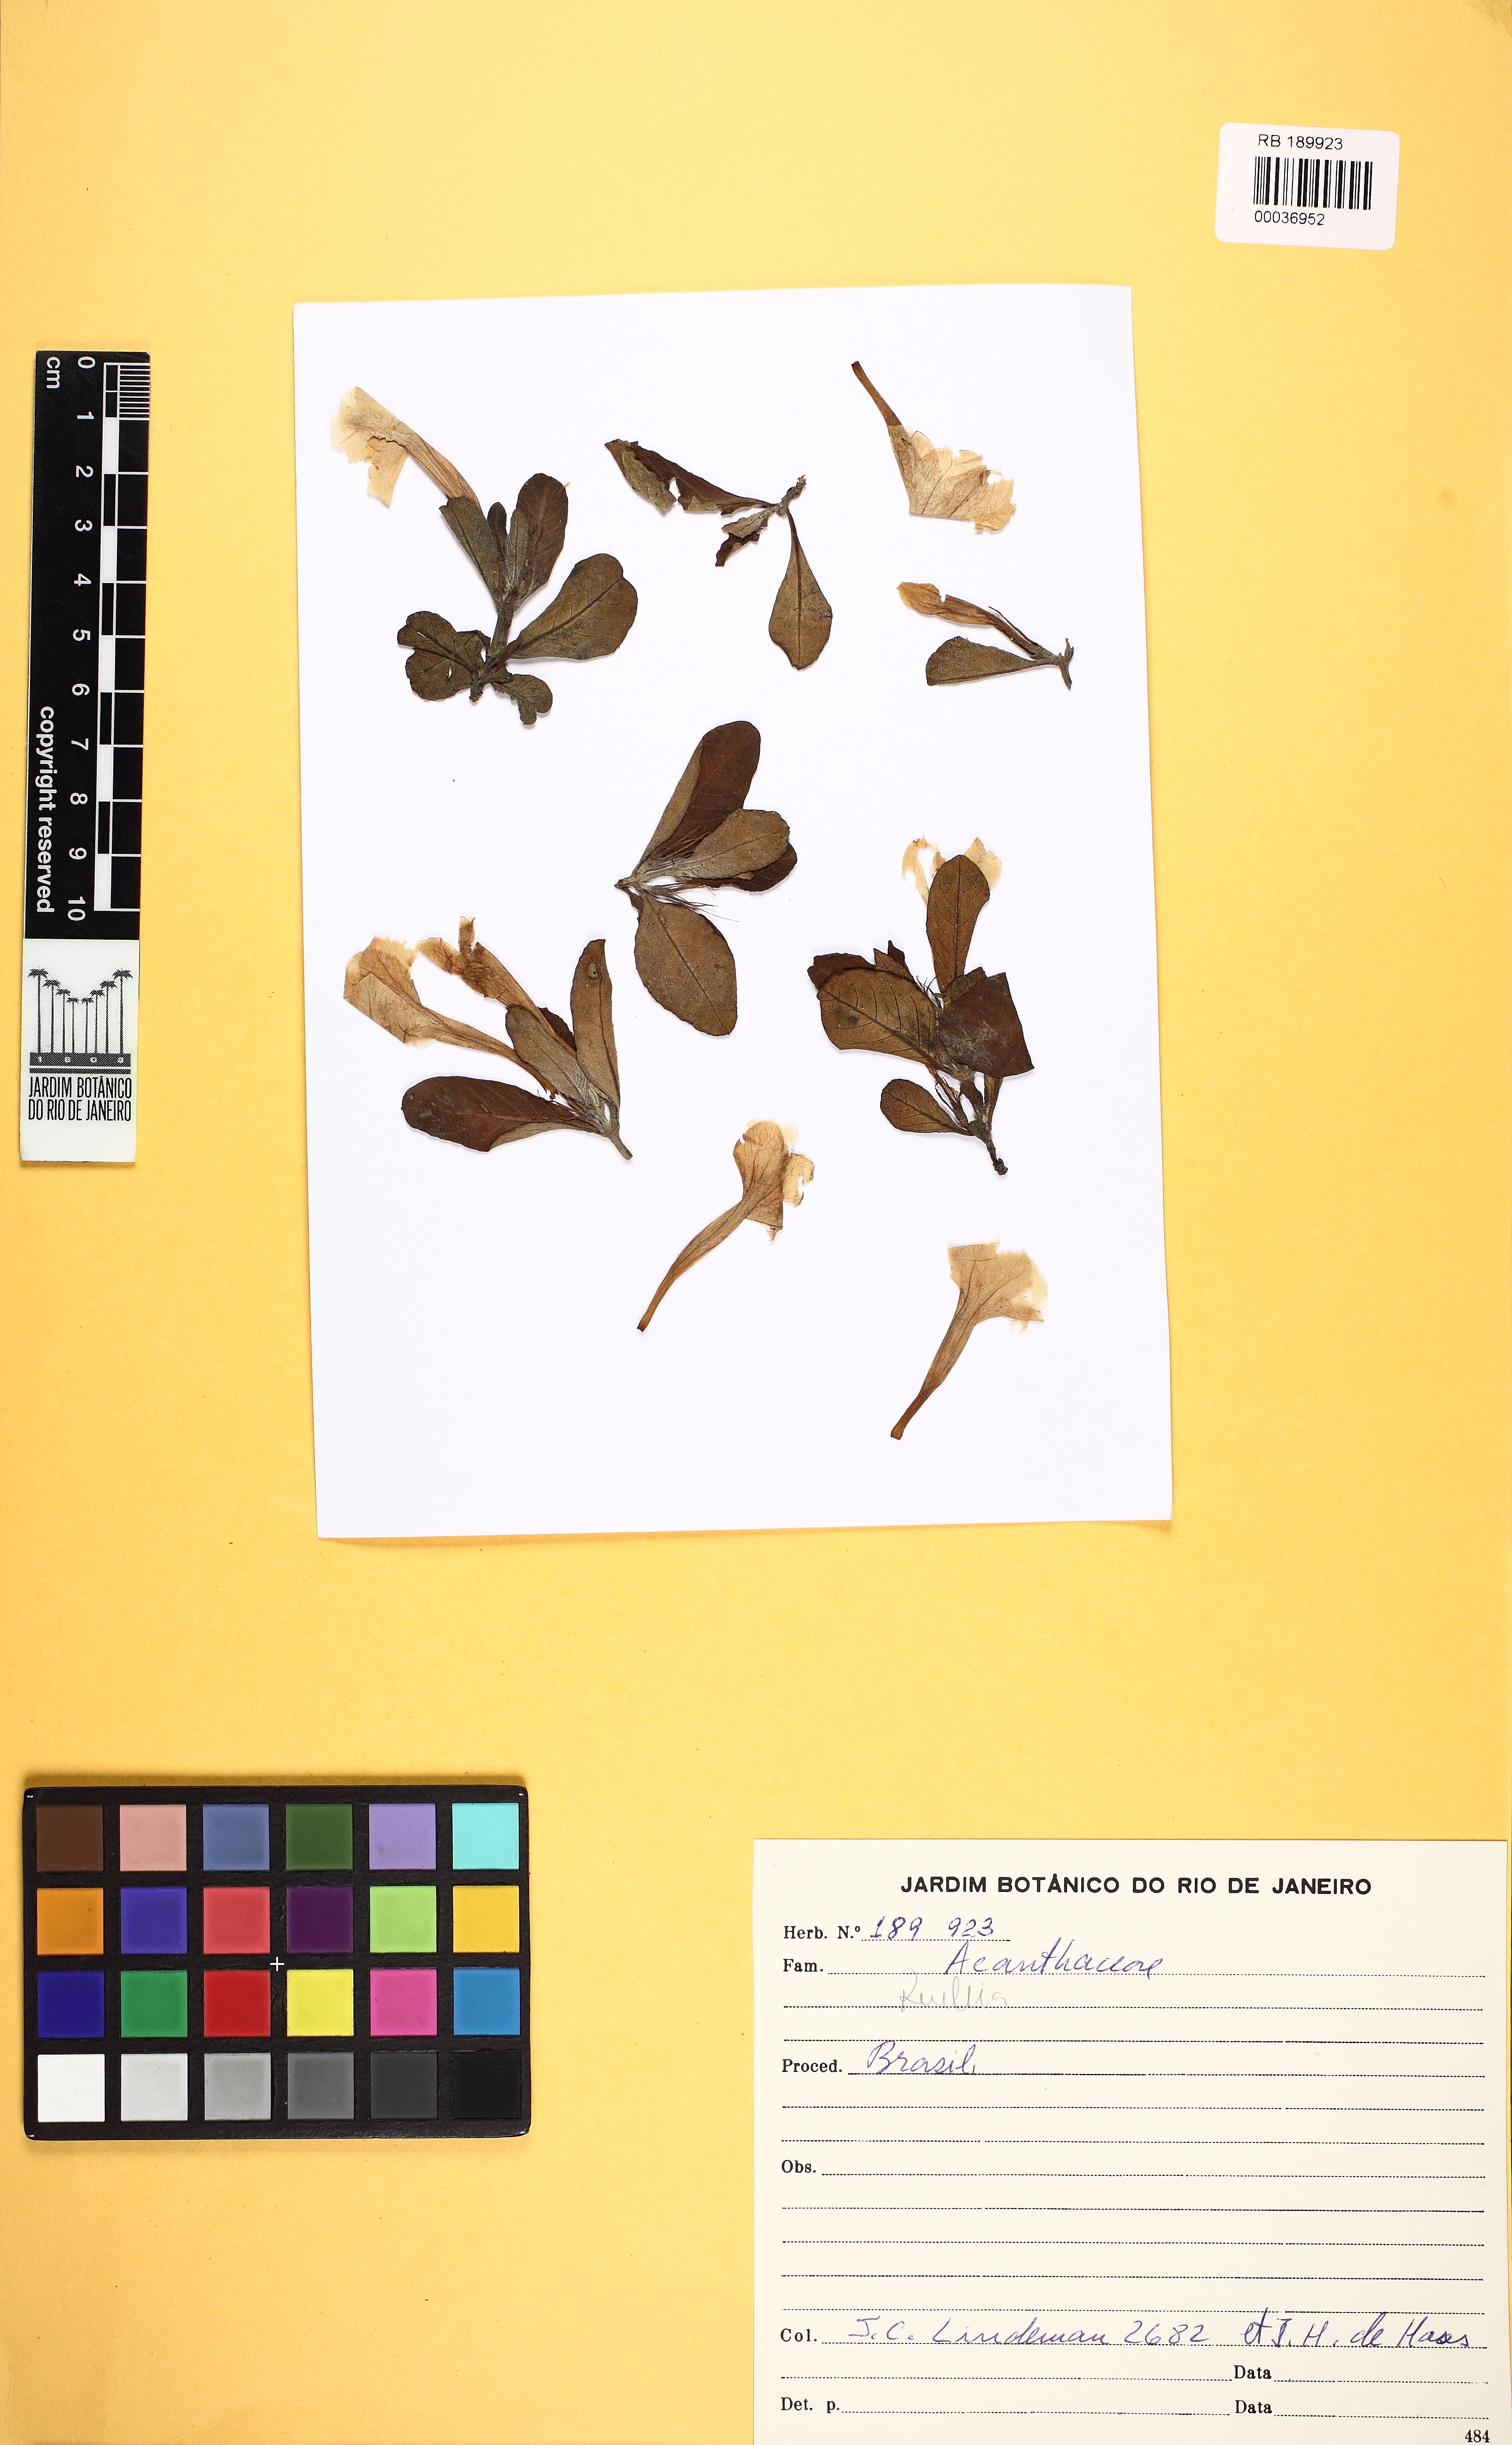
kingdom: Plantae
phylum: Tracheophyta
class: Magnoliopsida
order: Lamiales
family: Acanthaceae
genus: Ruellia
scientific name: Ruellia geminiflora
